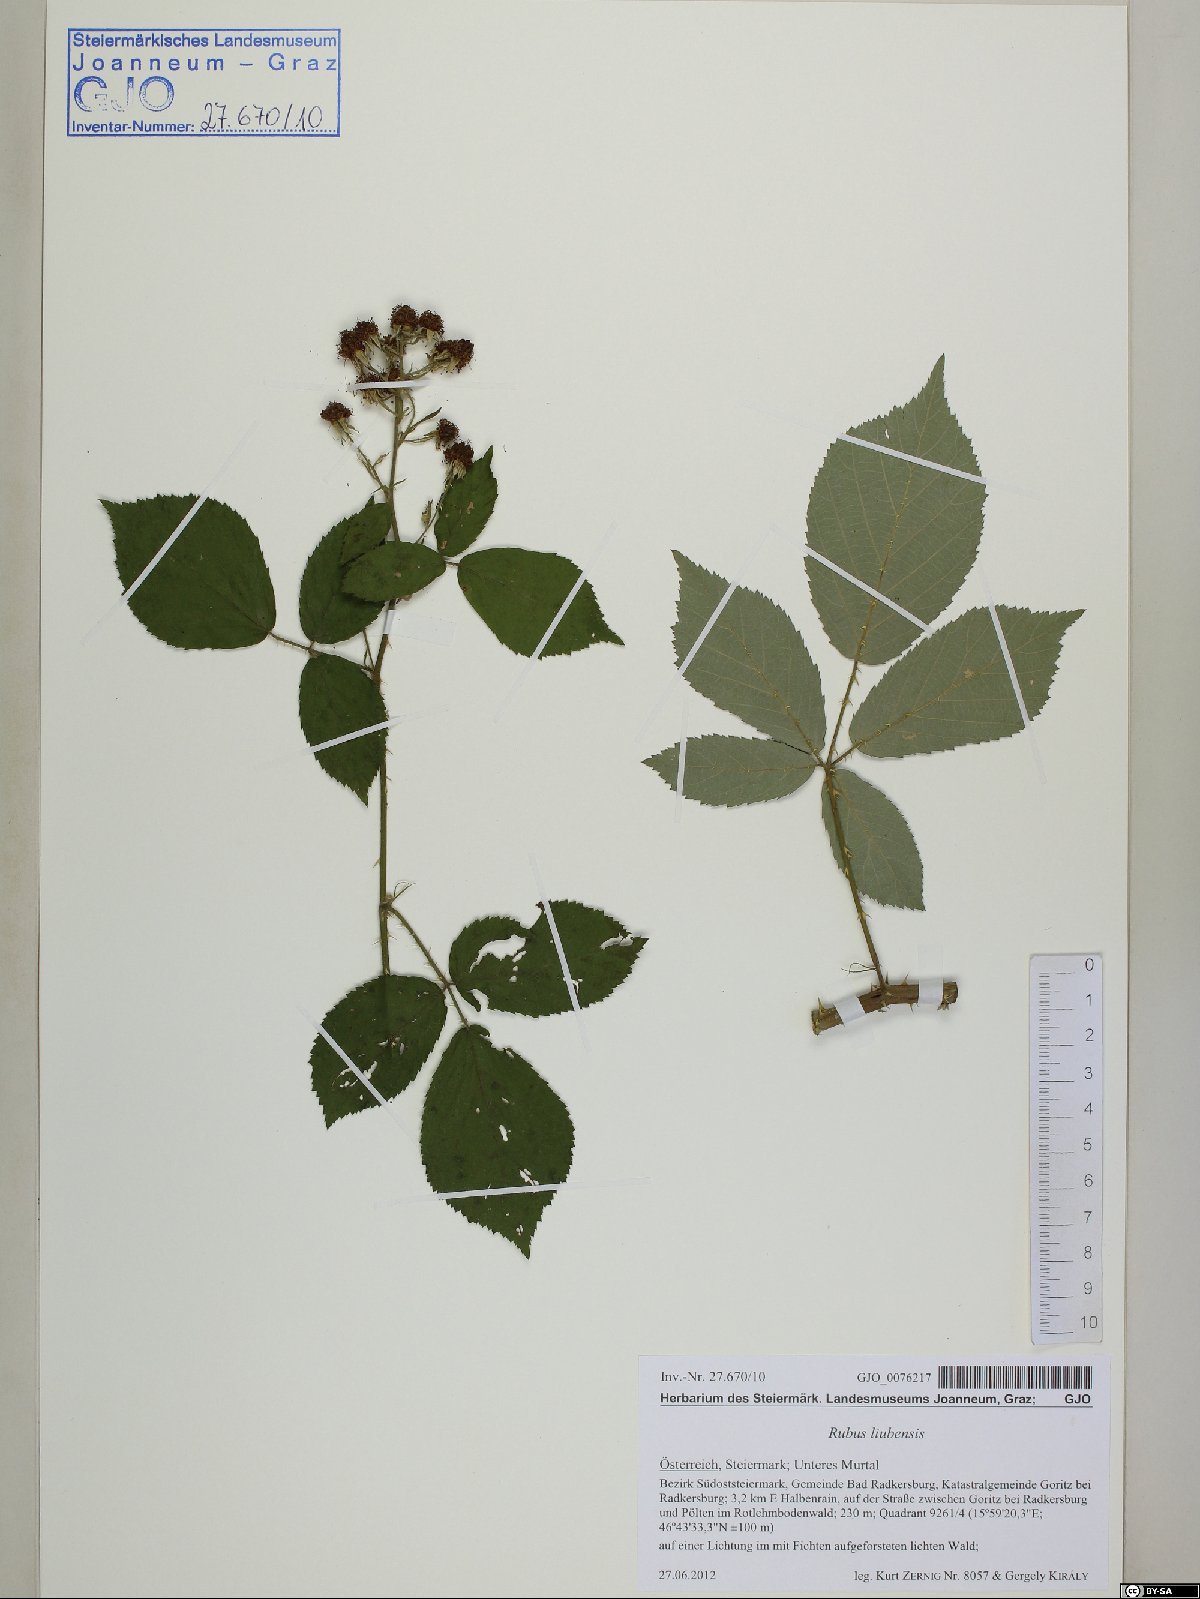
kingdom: Plantae
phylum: Tracheophyta
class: Magnoliopsida
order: Rosales
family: Rosaceae
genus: Rubus
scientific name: Rubus liubensis
